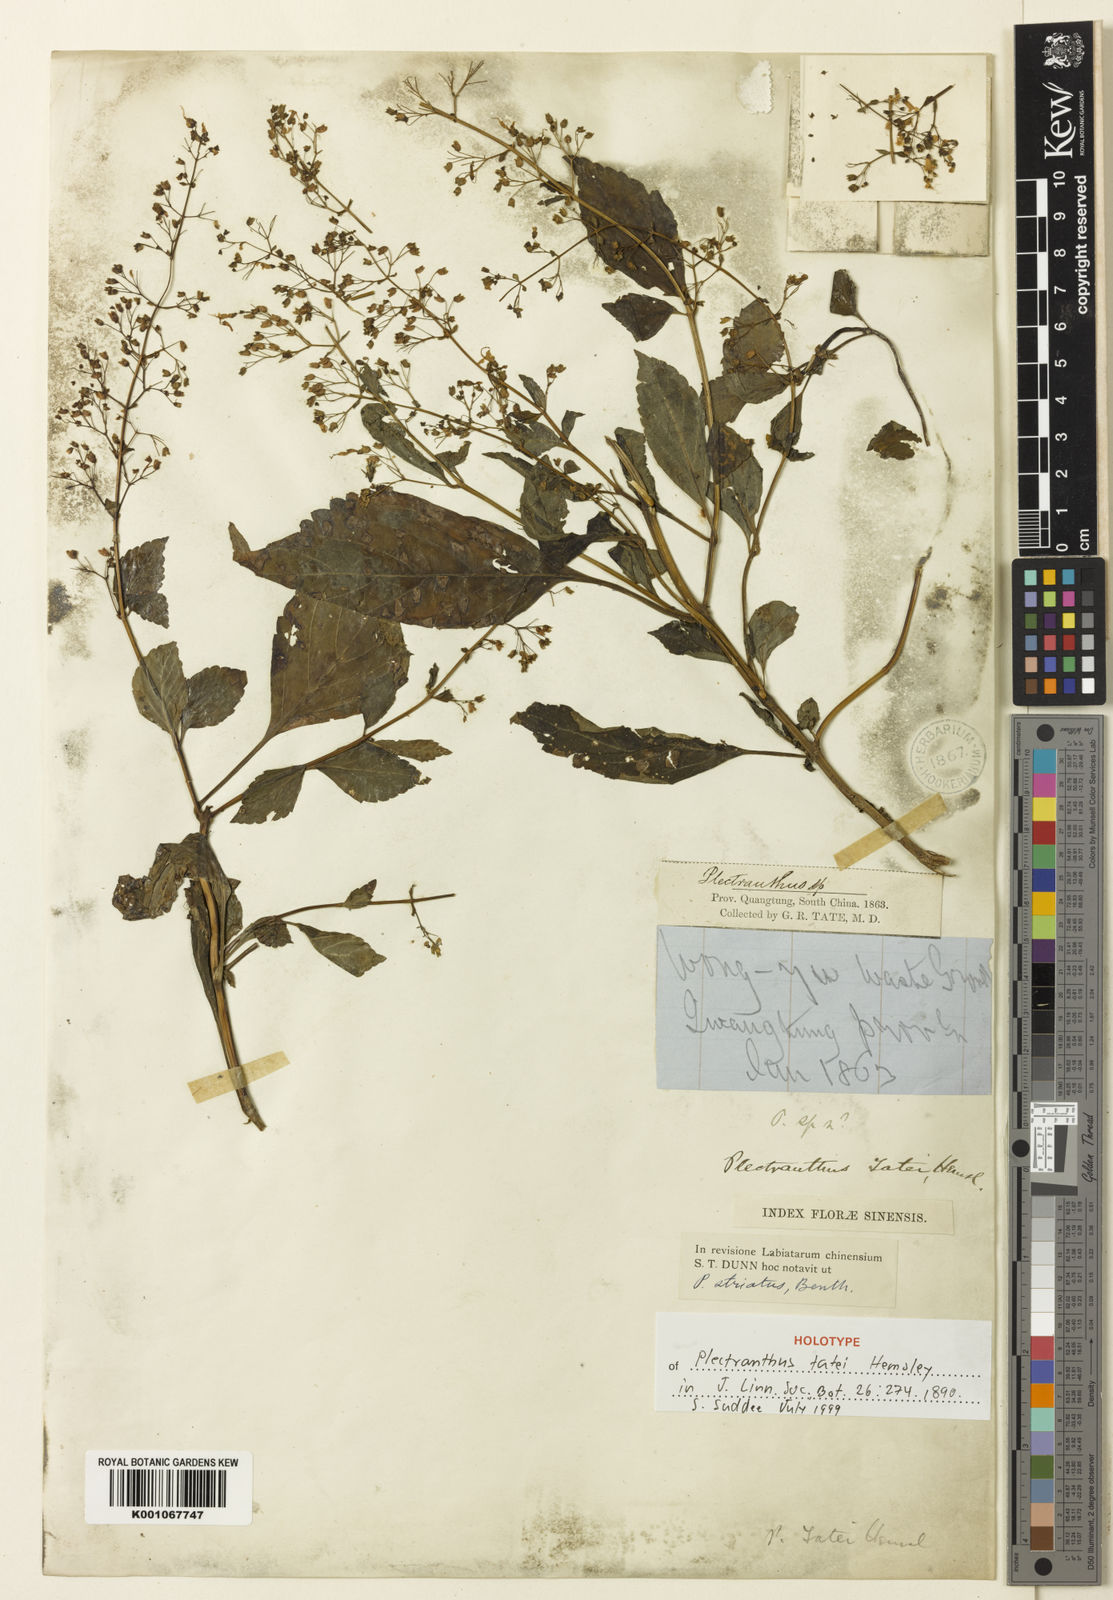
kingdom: Plantae
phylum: Tracheophyta
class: Magnoliopsida
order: Lamiales
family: Lamiaceae
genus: Isodon
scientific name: Isodon lophanthoides
